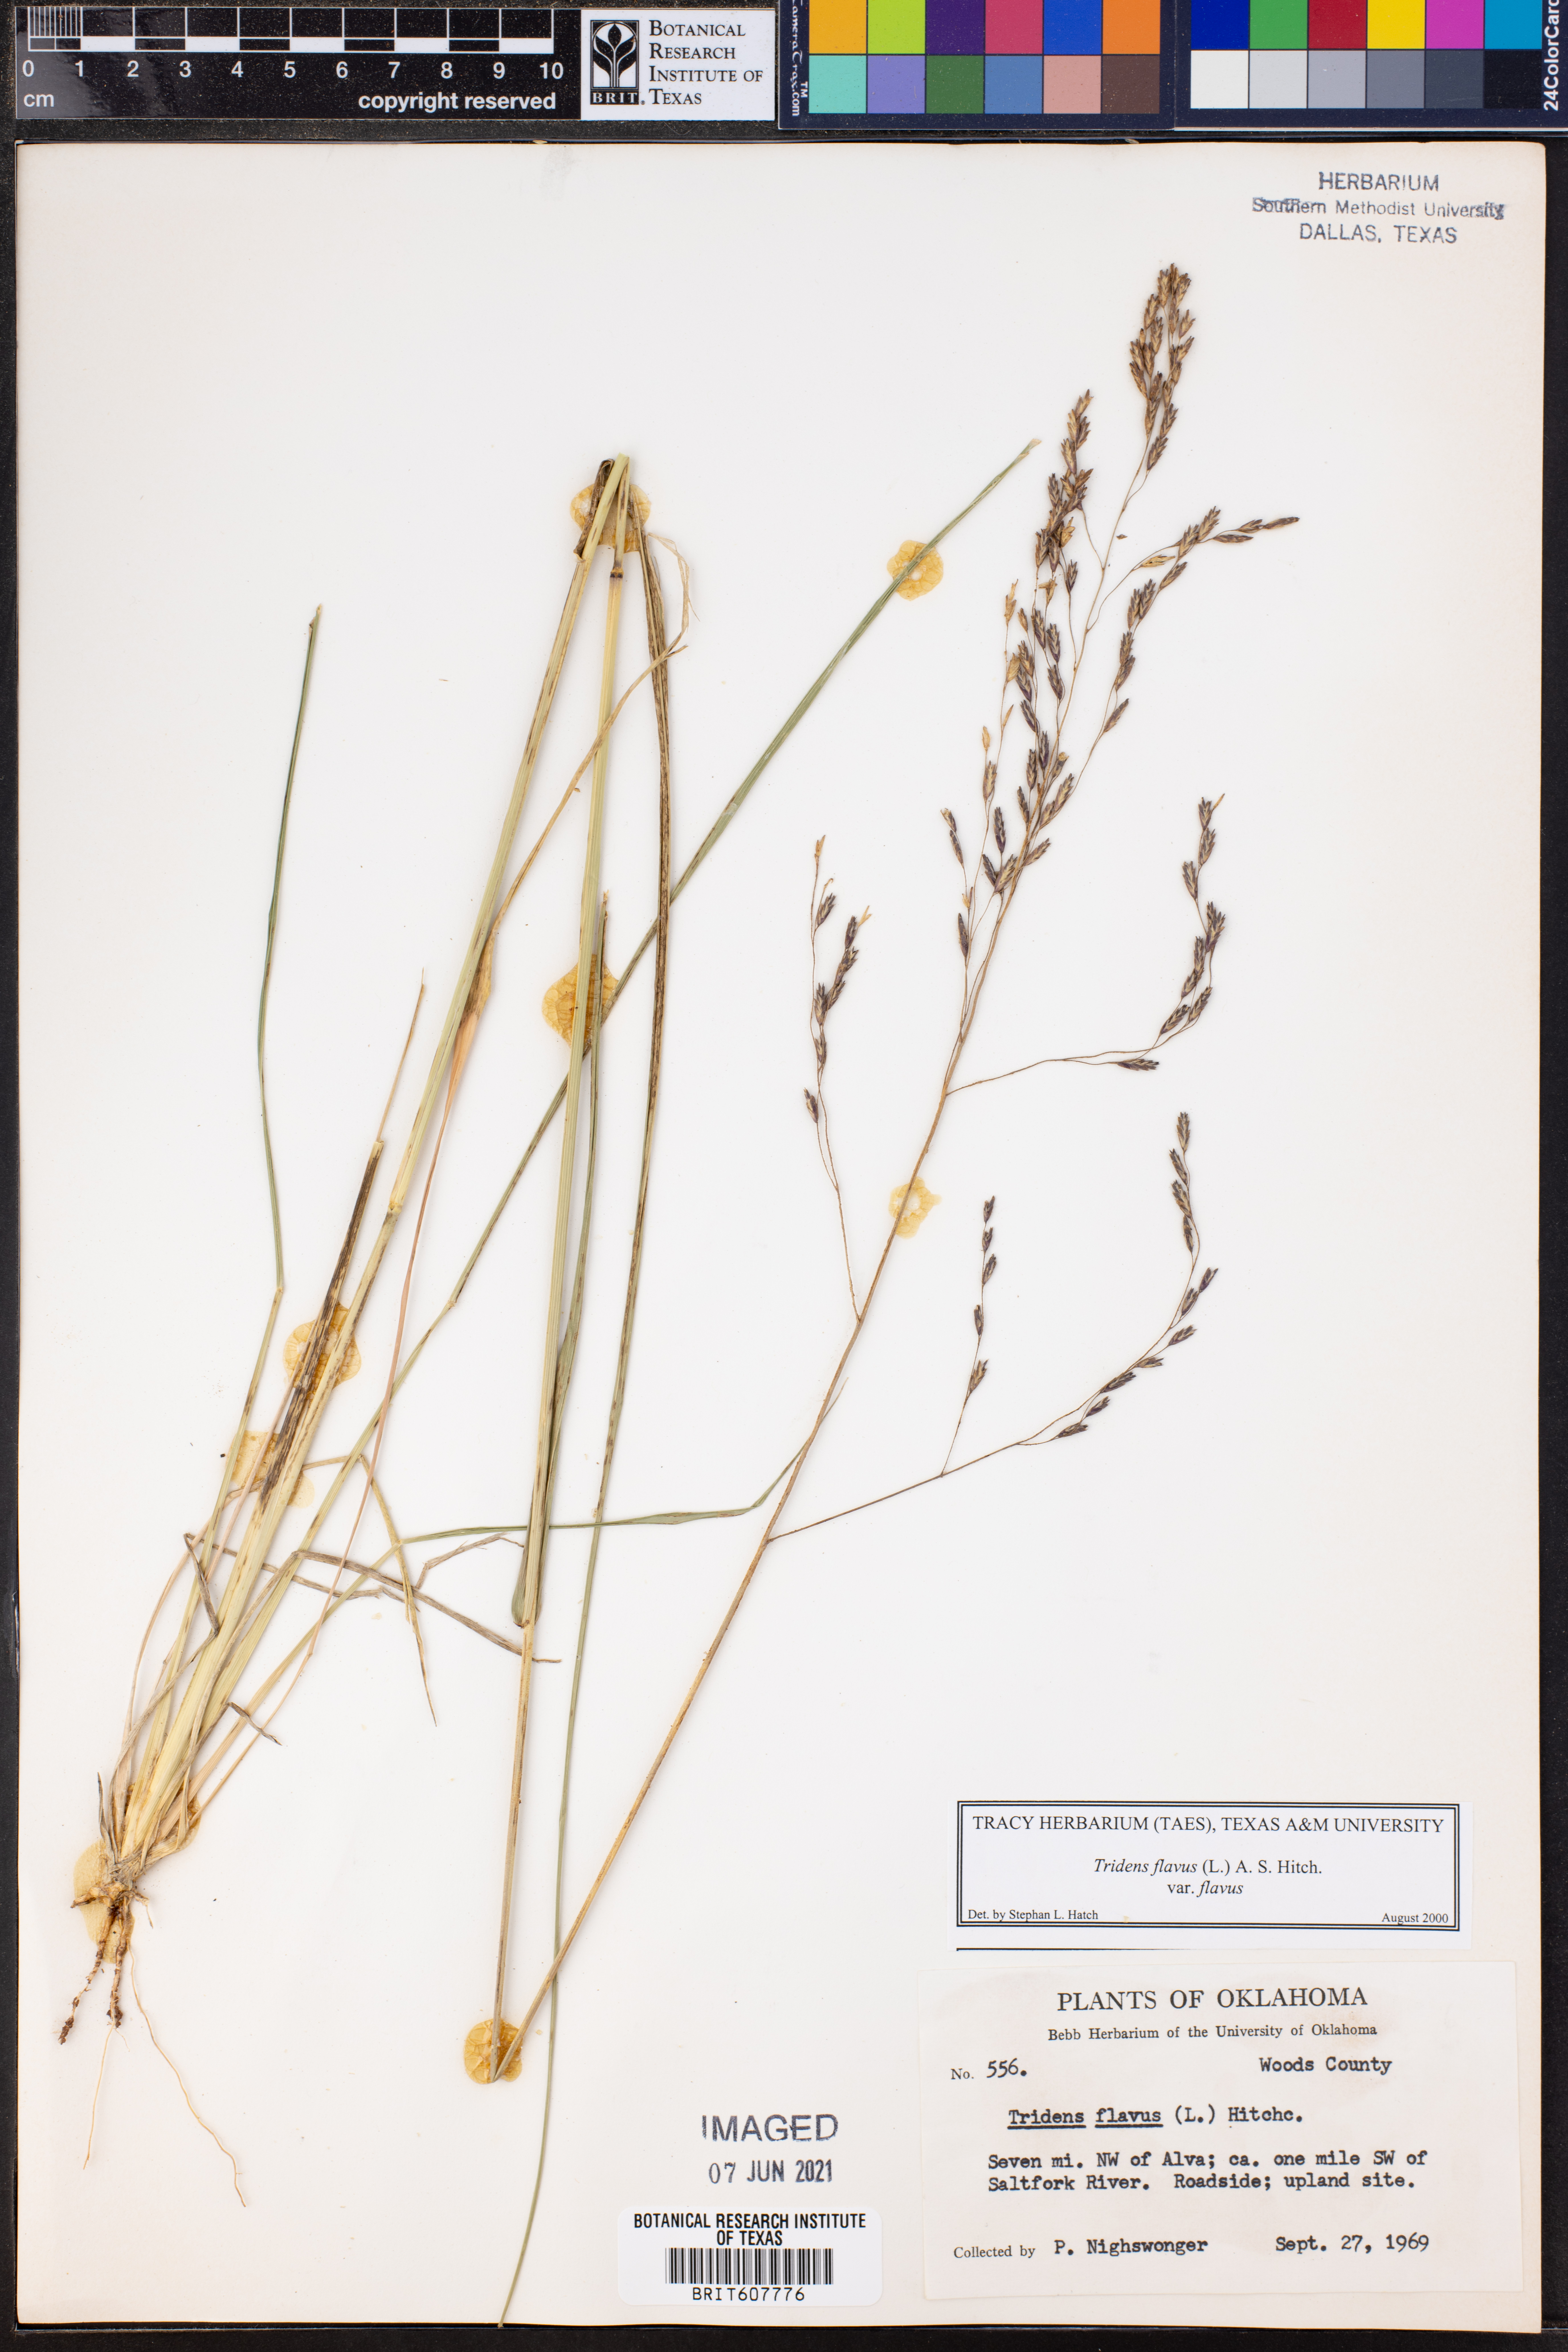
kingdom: Plantae
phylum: Tracheophyta
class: Liliopsida
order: Poales
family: Poaceae
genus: Tridens
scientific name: Tridens flavus
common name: Purpletop
